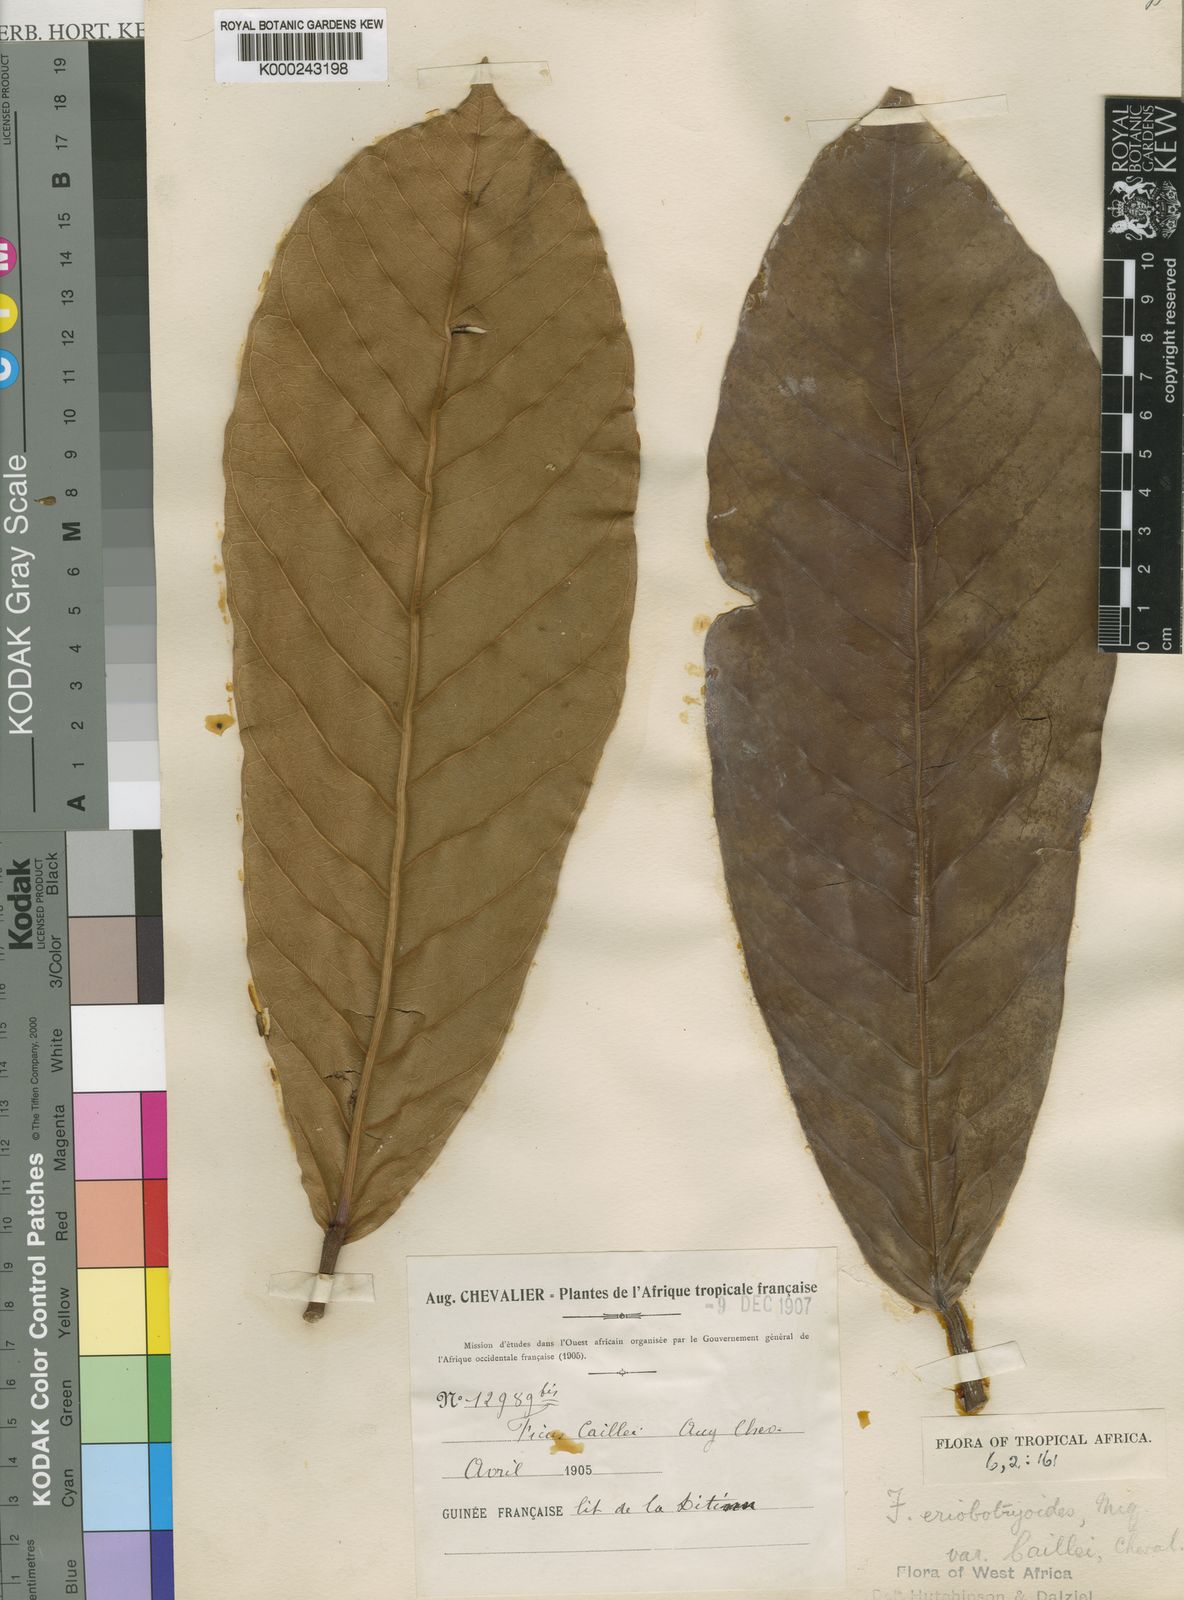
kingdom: Plantae
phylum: Tracheophyta
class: Magnoliopsida
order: Rosales
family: Moraceae
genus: Ficus
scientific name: Ficus saussureana
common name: Loquat-leaf fig
